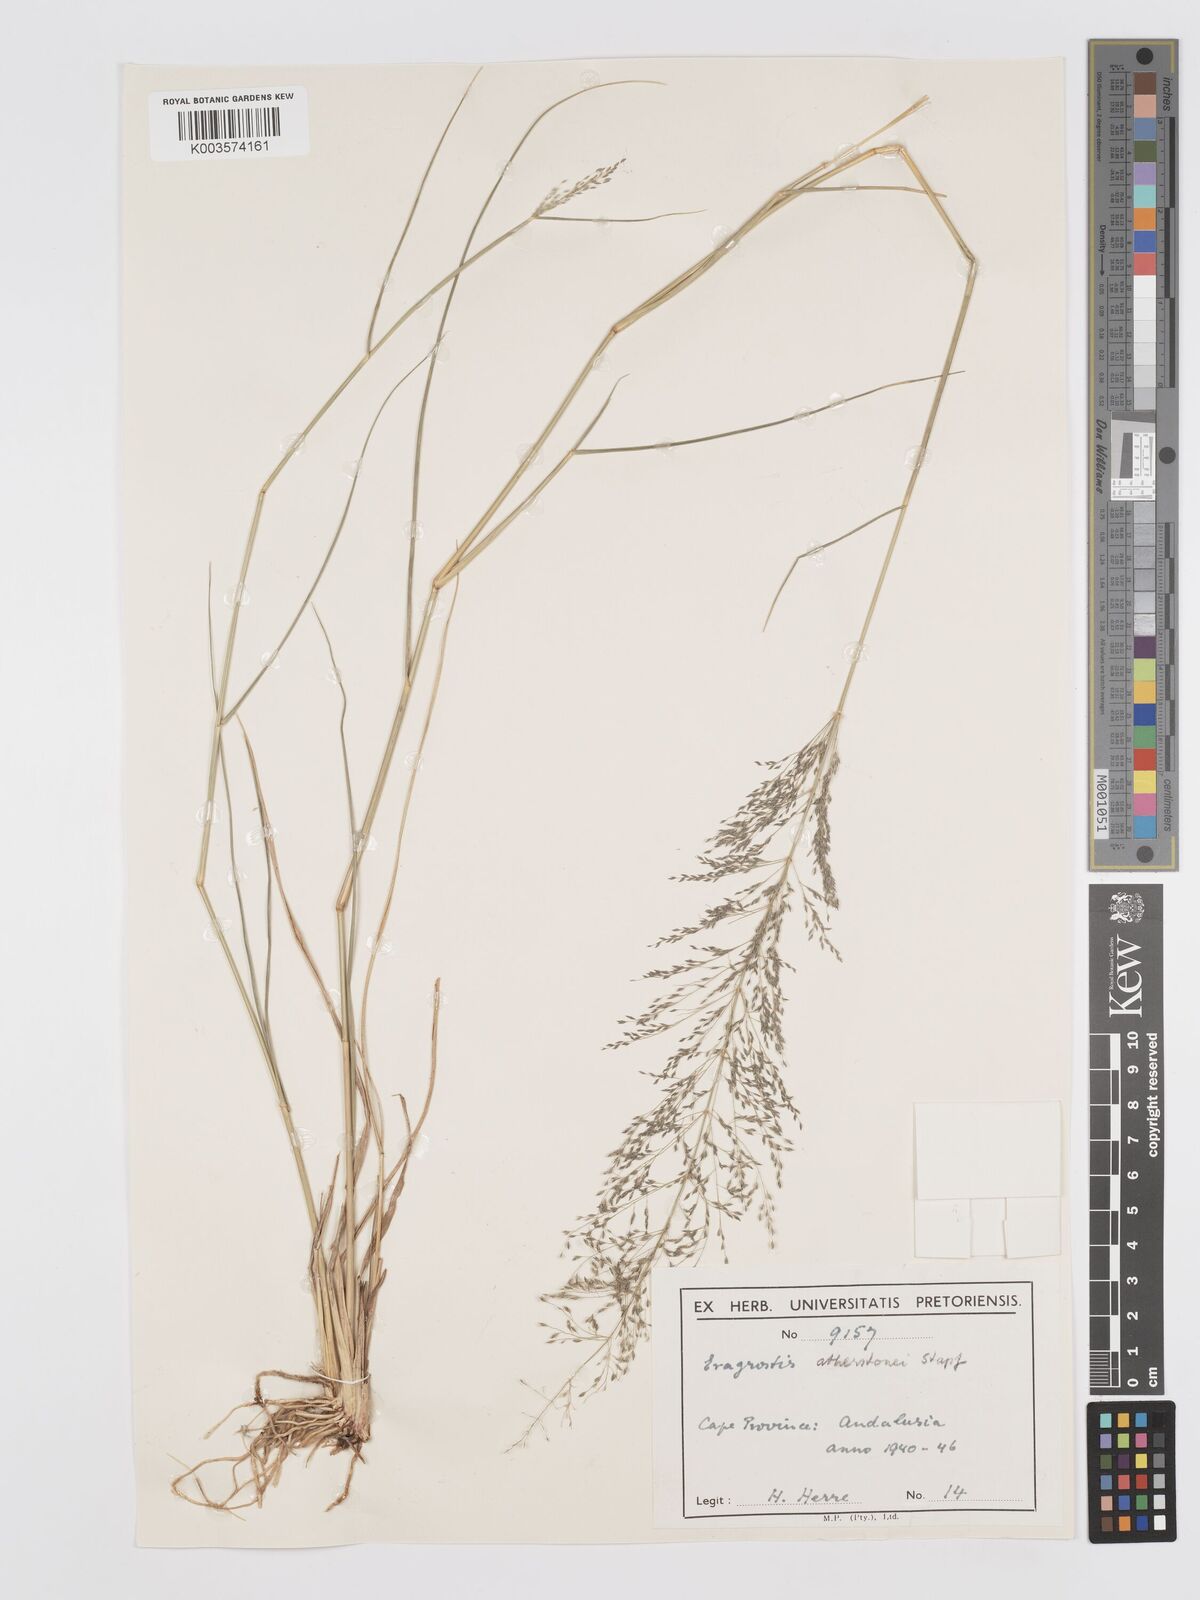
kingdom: Plantae
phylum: Tracheophyta
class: Liliopsida
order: Poales
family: Poaceae
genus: Eragrostis
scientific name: Eragrostis cylindriflora
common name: Cylinderflower lovegrass
